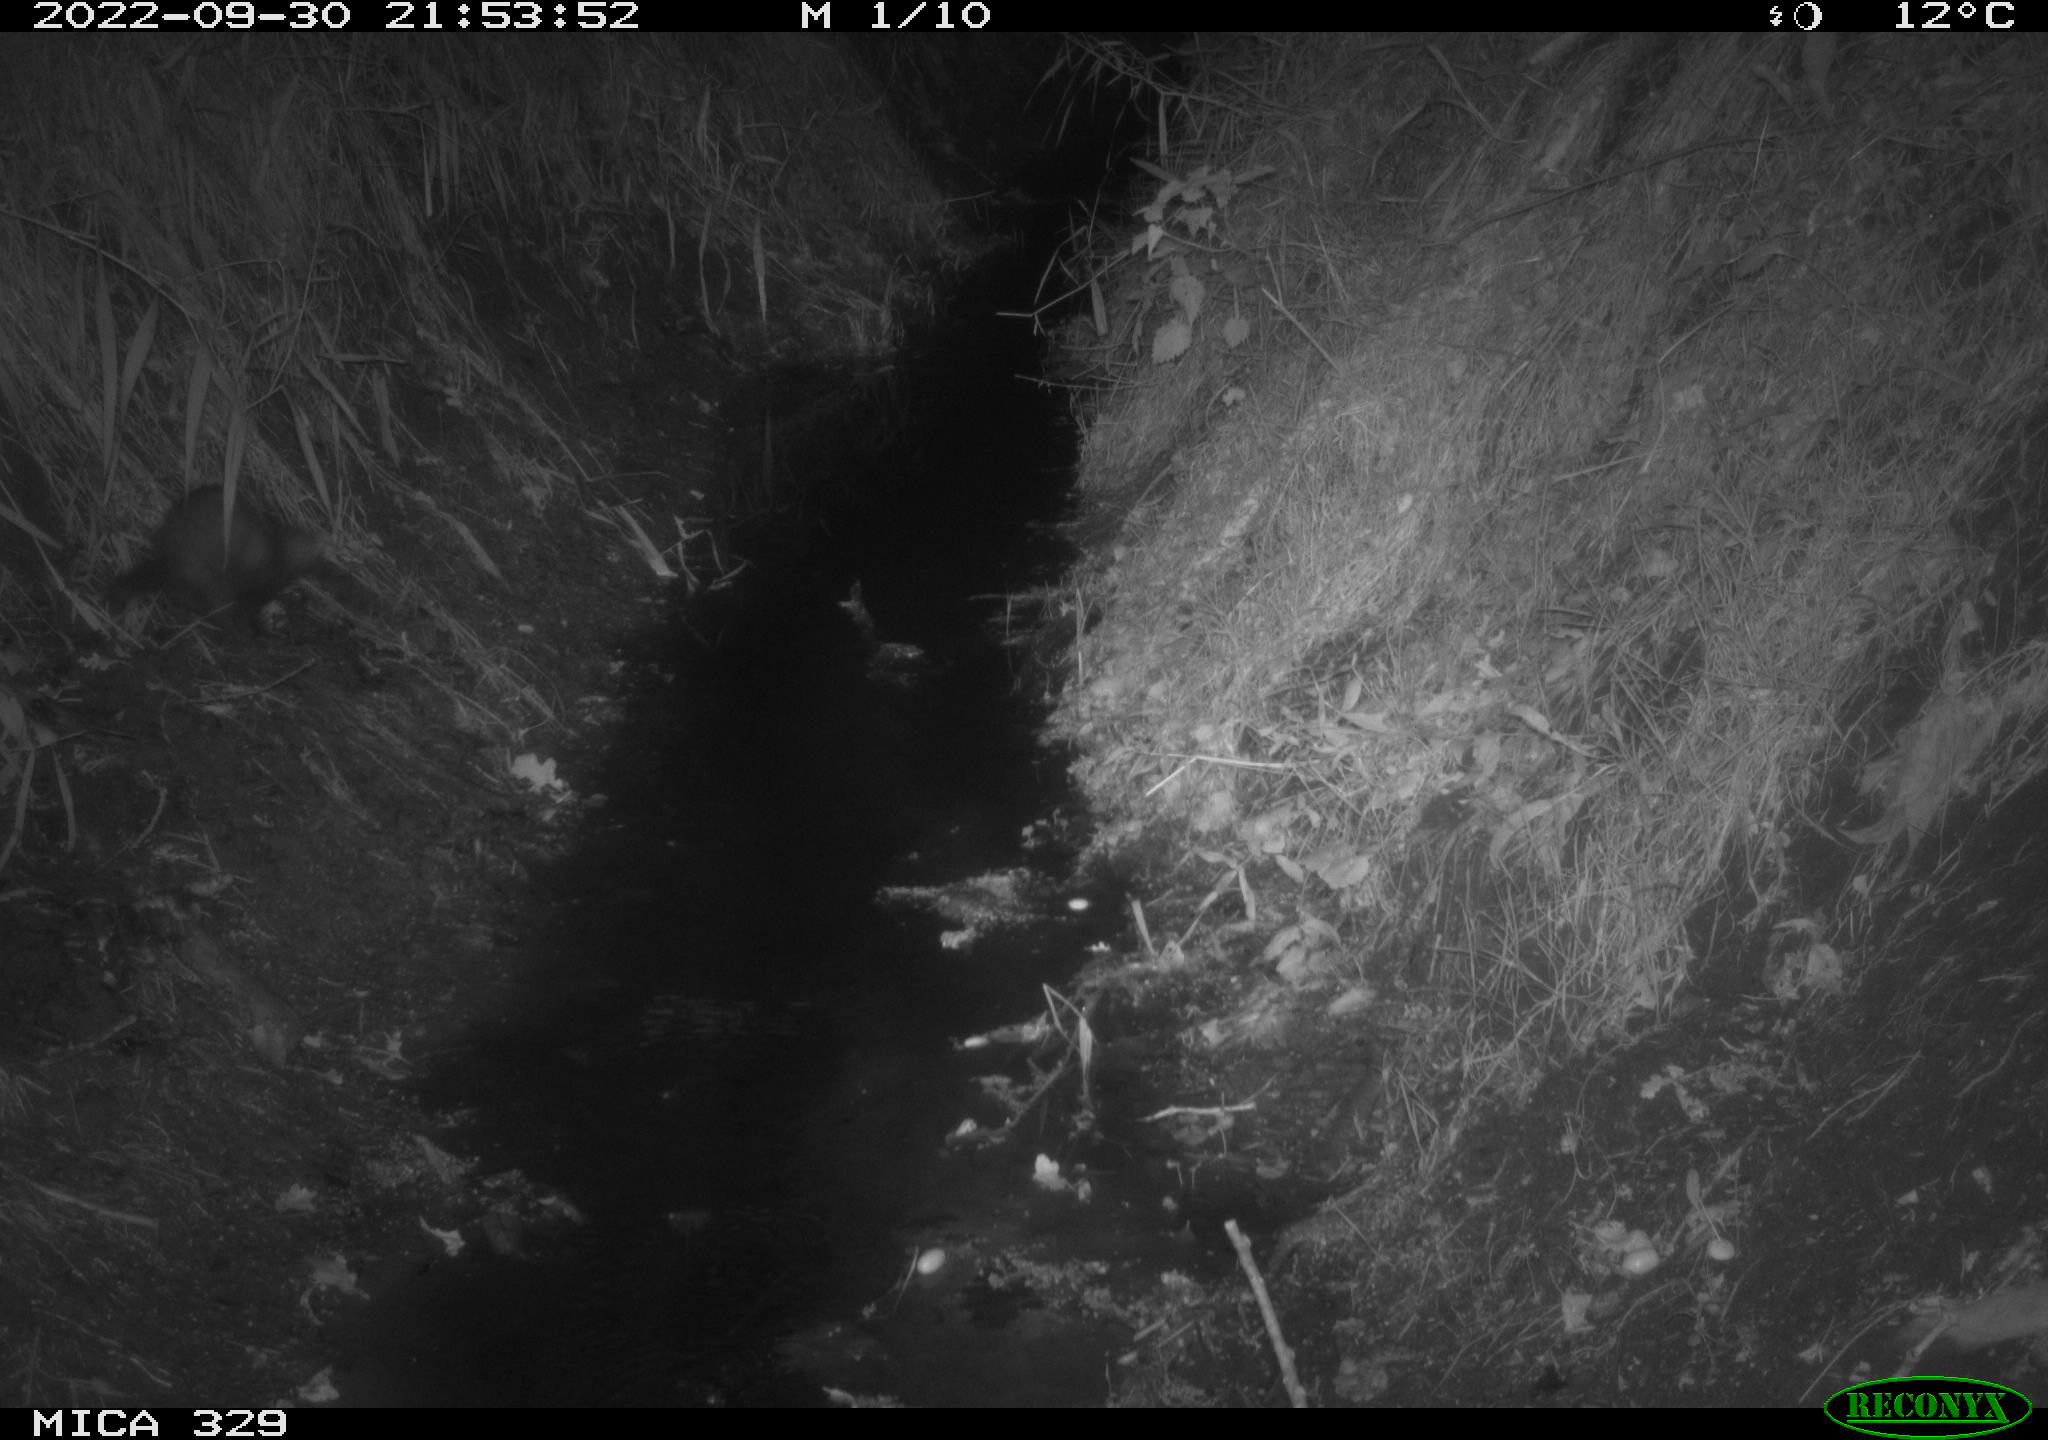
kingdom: Animalia
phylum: Chordata
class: Mammalia
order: Carnivora
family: Mustelidae
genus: Mustela
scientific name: Mustela putorius
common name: European polecat
